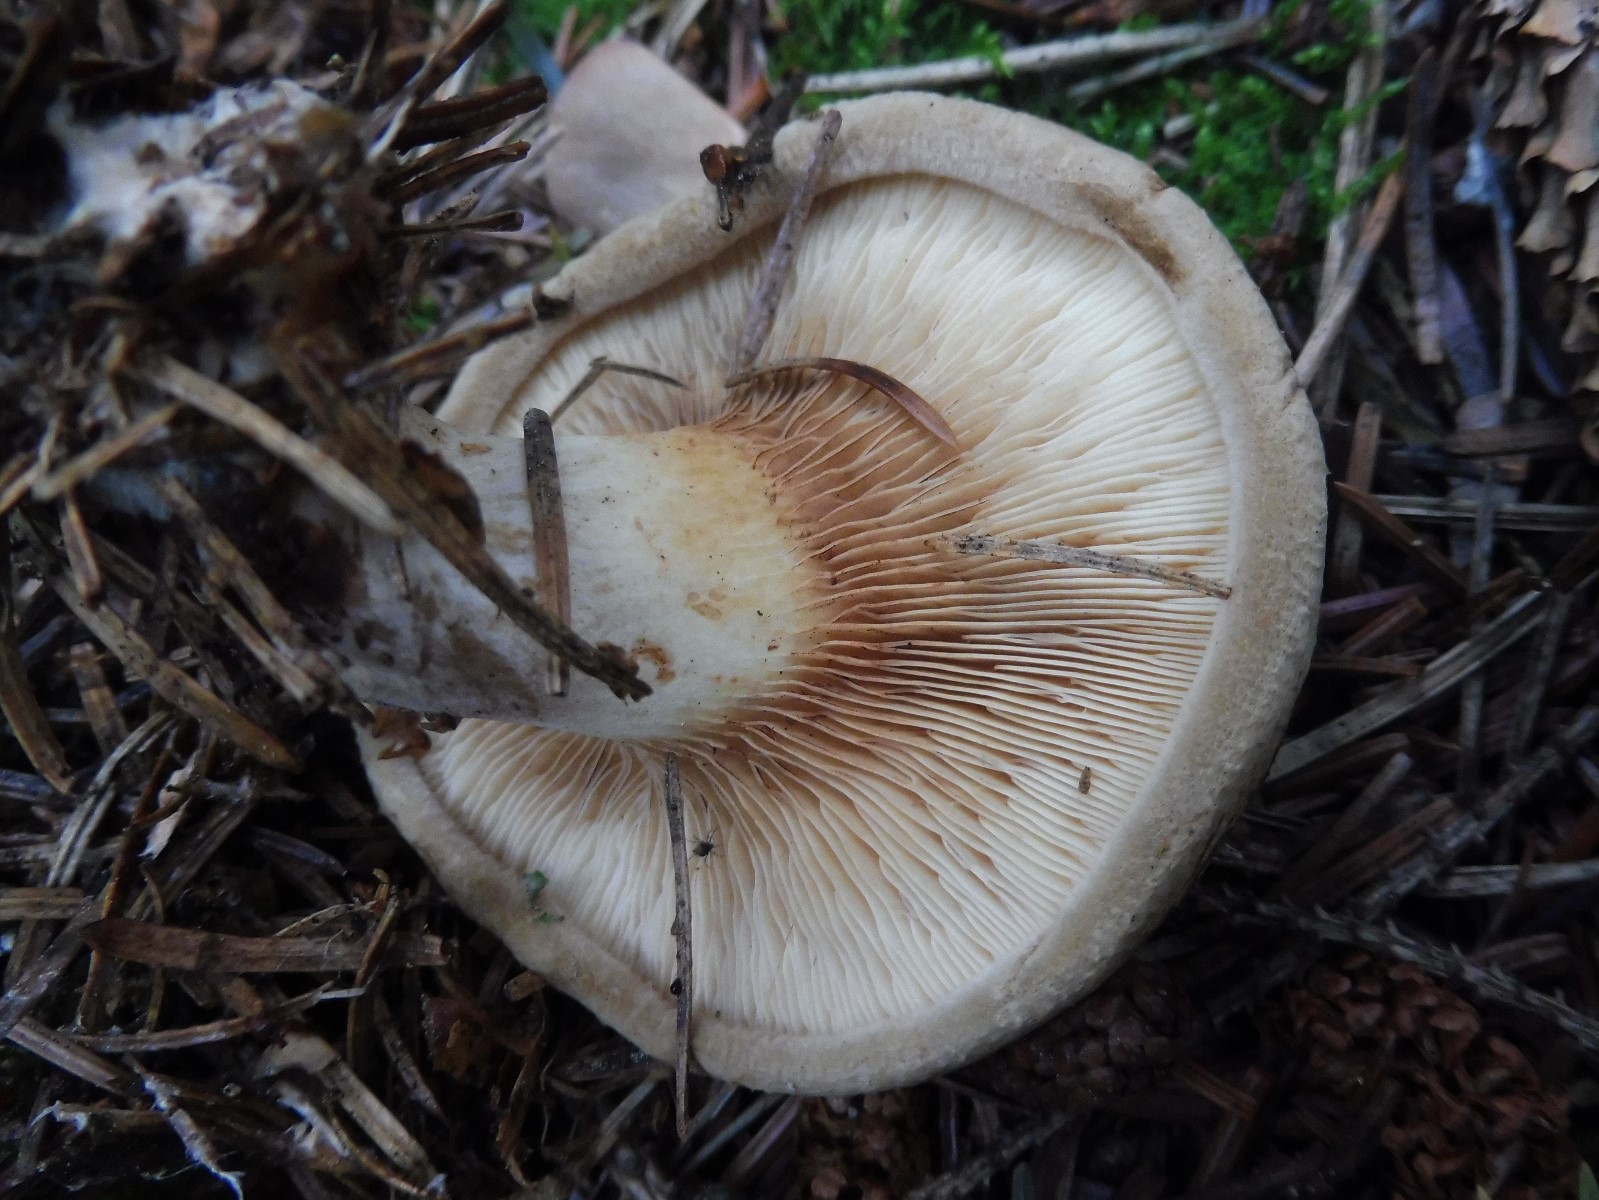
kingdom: Fungi
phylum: Basidiomycota
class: Agaricomycetes
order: Boletales
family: Paxillaceae
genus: Paxillus
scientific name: Paxillus involutus
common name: almindelig netbladhat
